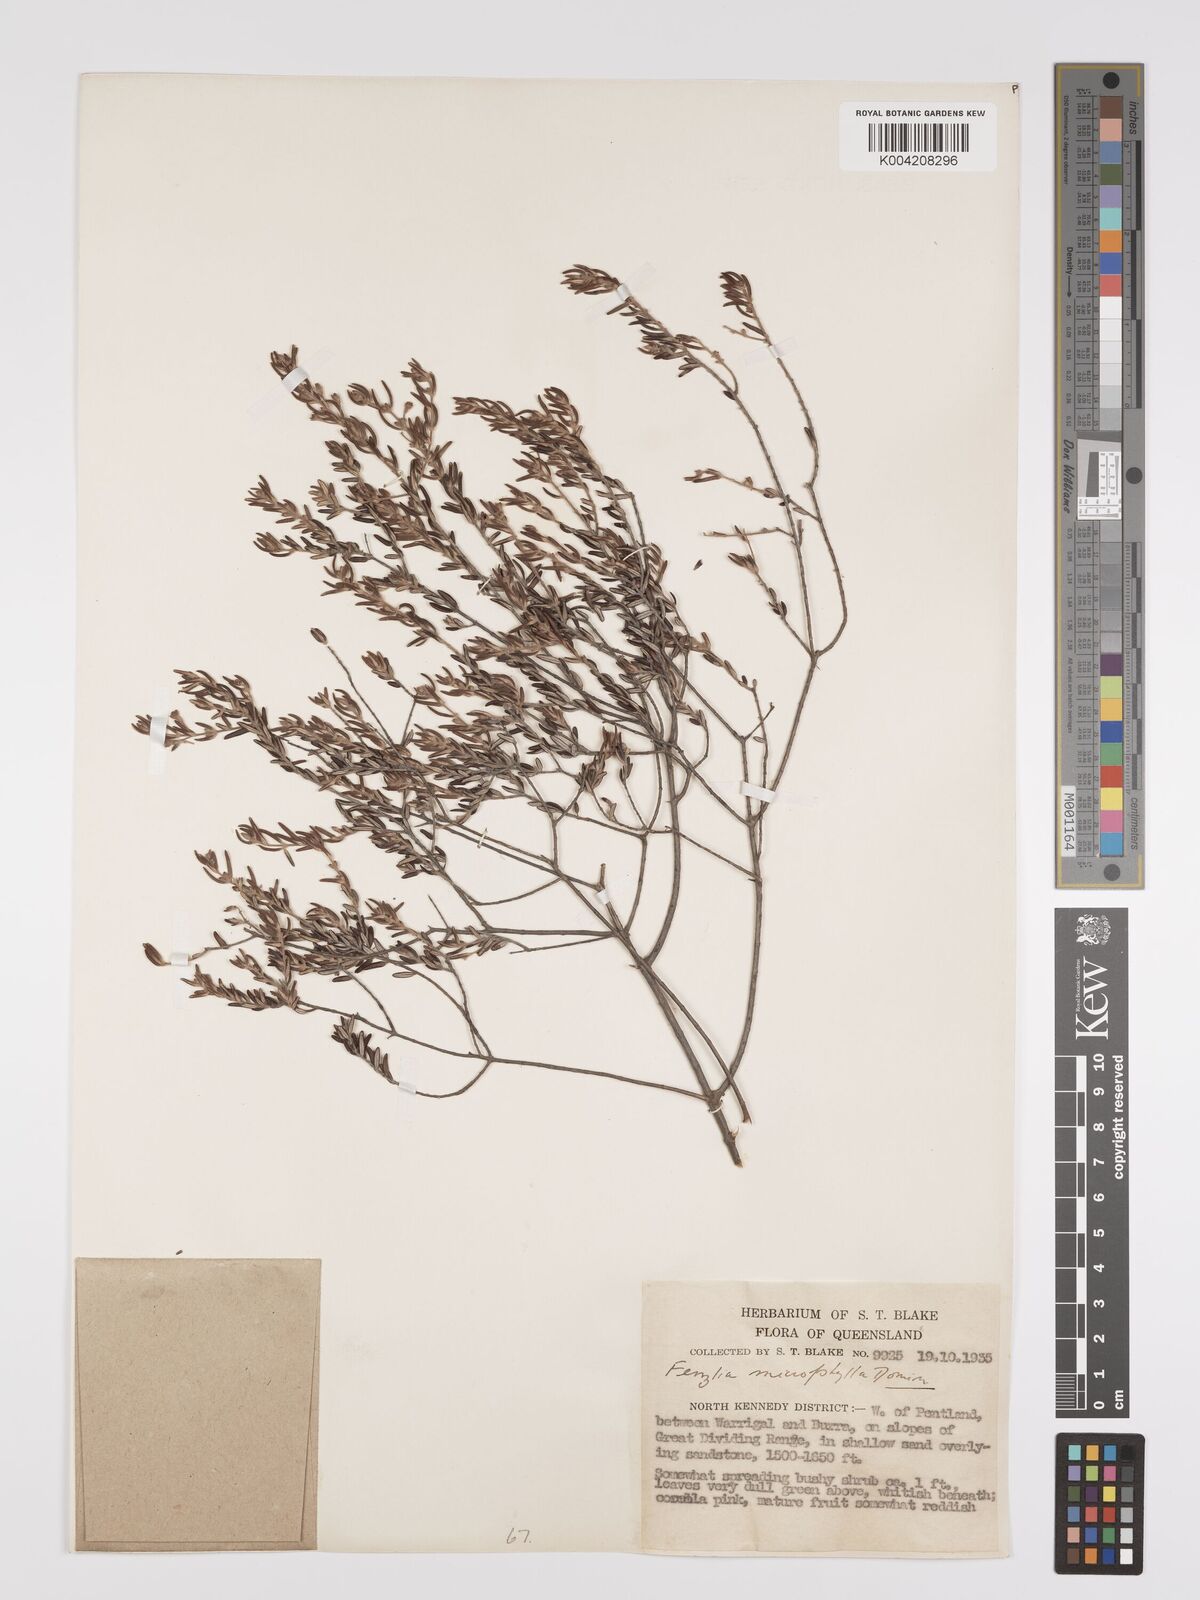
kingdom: Plantae
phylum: Tracheophyta
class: Magnoliopsida
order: Myrtales
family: Myrtaceae
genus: Lithomyrtus
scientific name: Lithomyrtus microphylla
